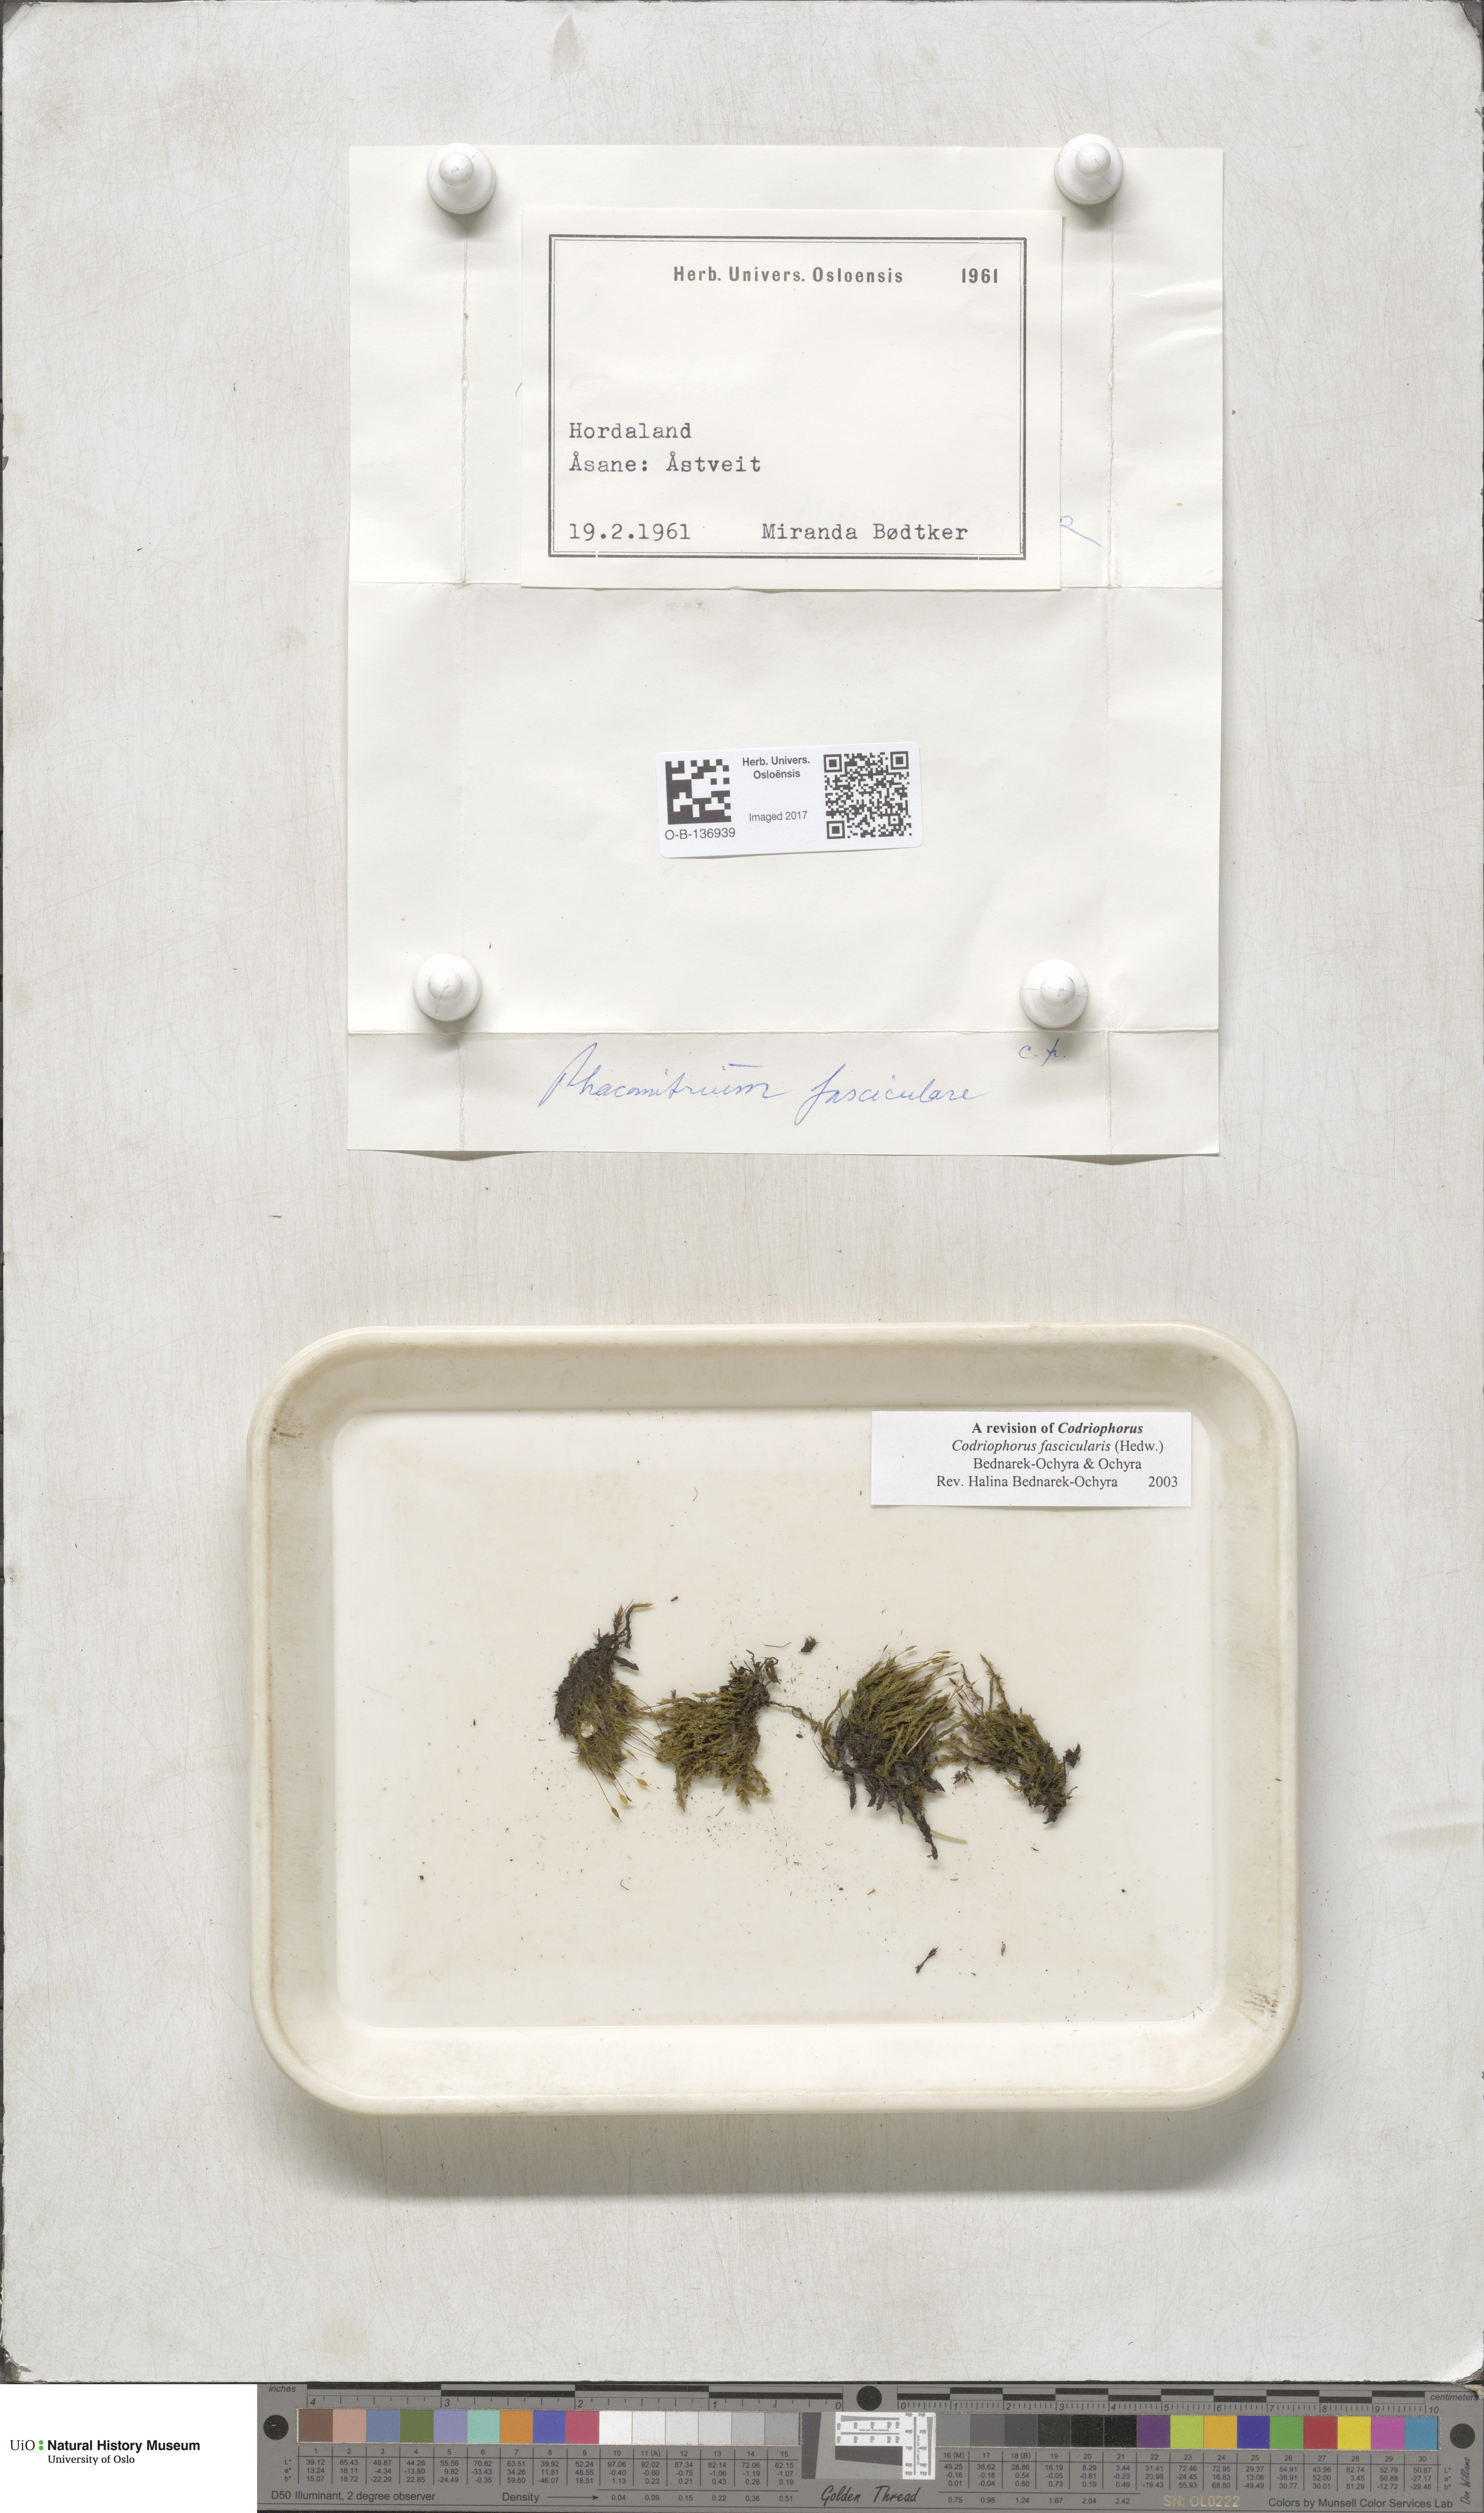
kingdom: Plantae
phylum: Bryophyta
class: Bryopsida
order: Grimmiales
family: Grimmiaceae
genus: Dilutineuron
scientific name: Dilutineuron fasciculare
